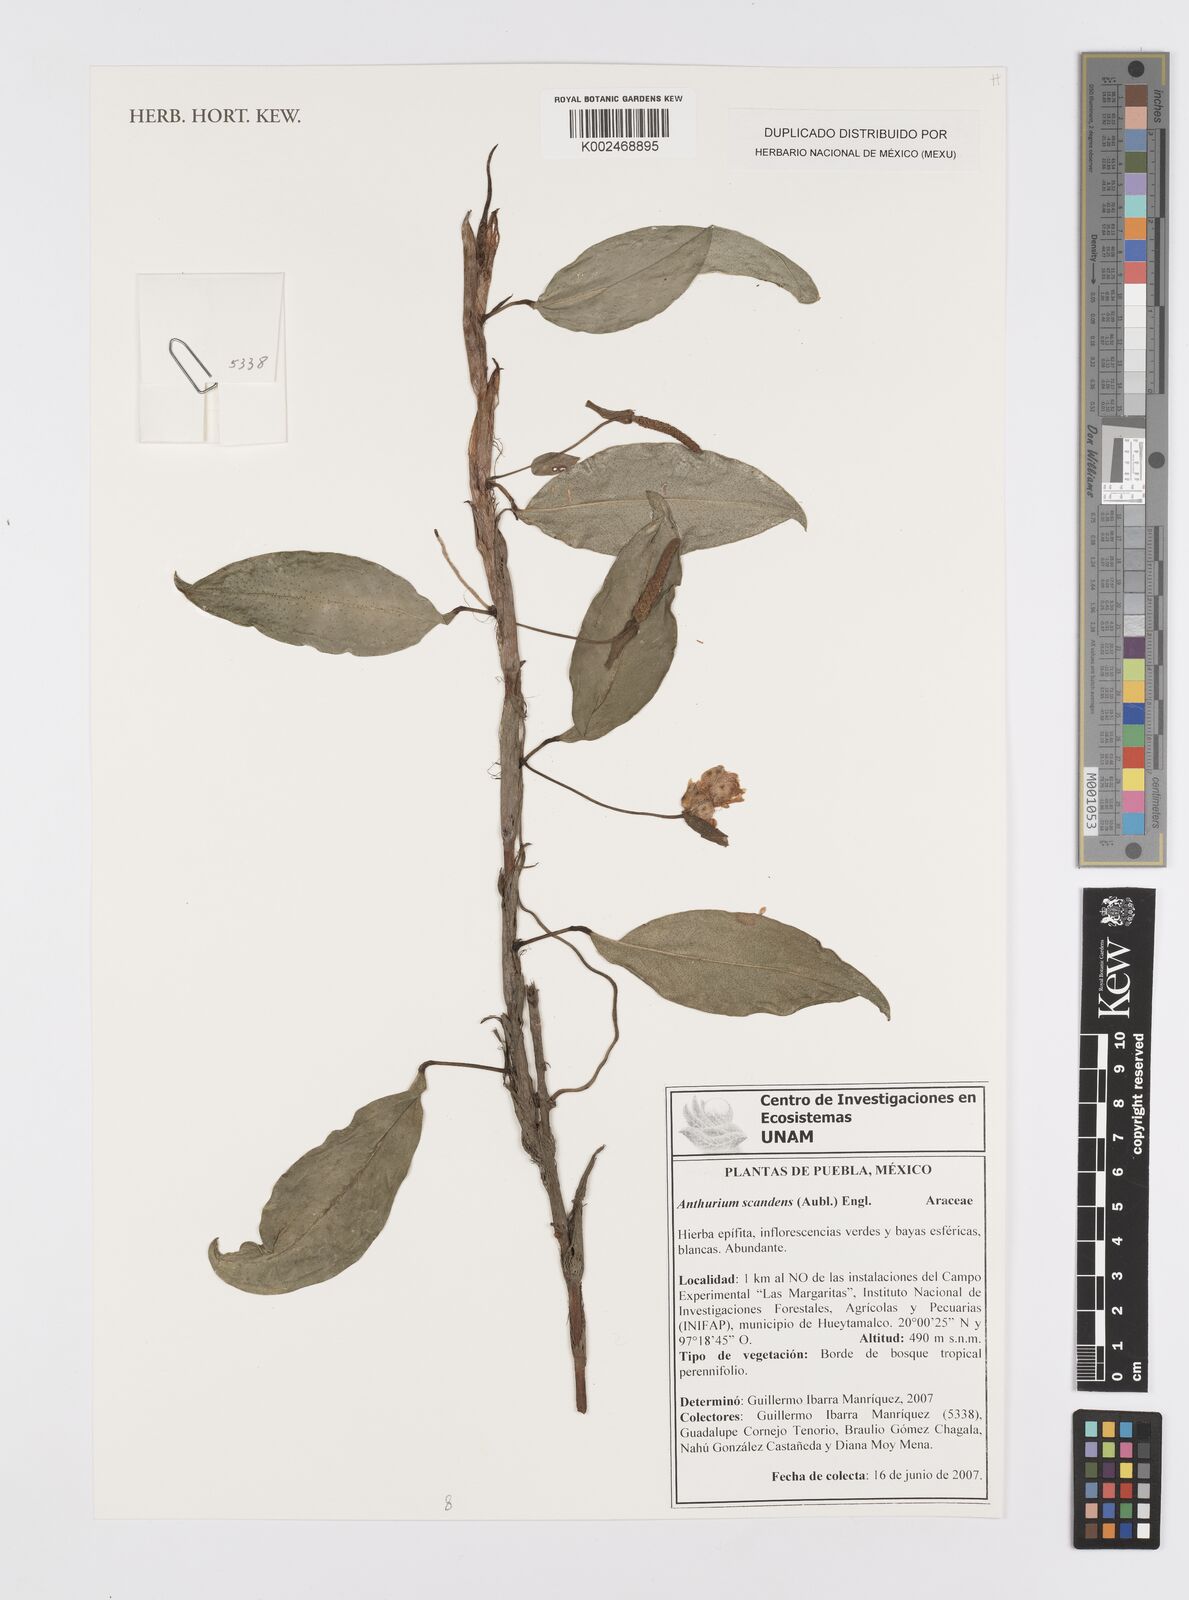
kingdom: Plantae
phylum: Tracheophyta
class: Liliopsida
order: Alismatales
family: Araceae
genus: Anthurium
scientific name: Anthurium scandens
